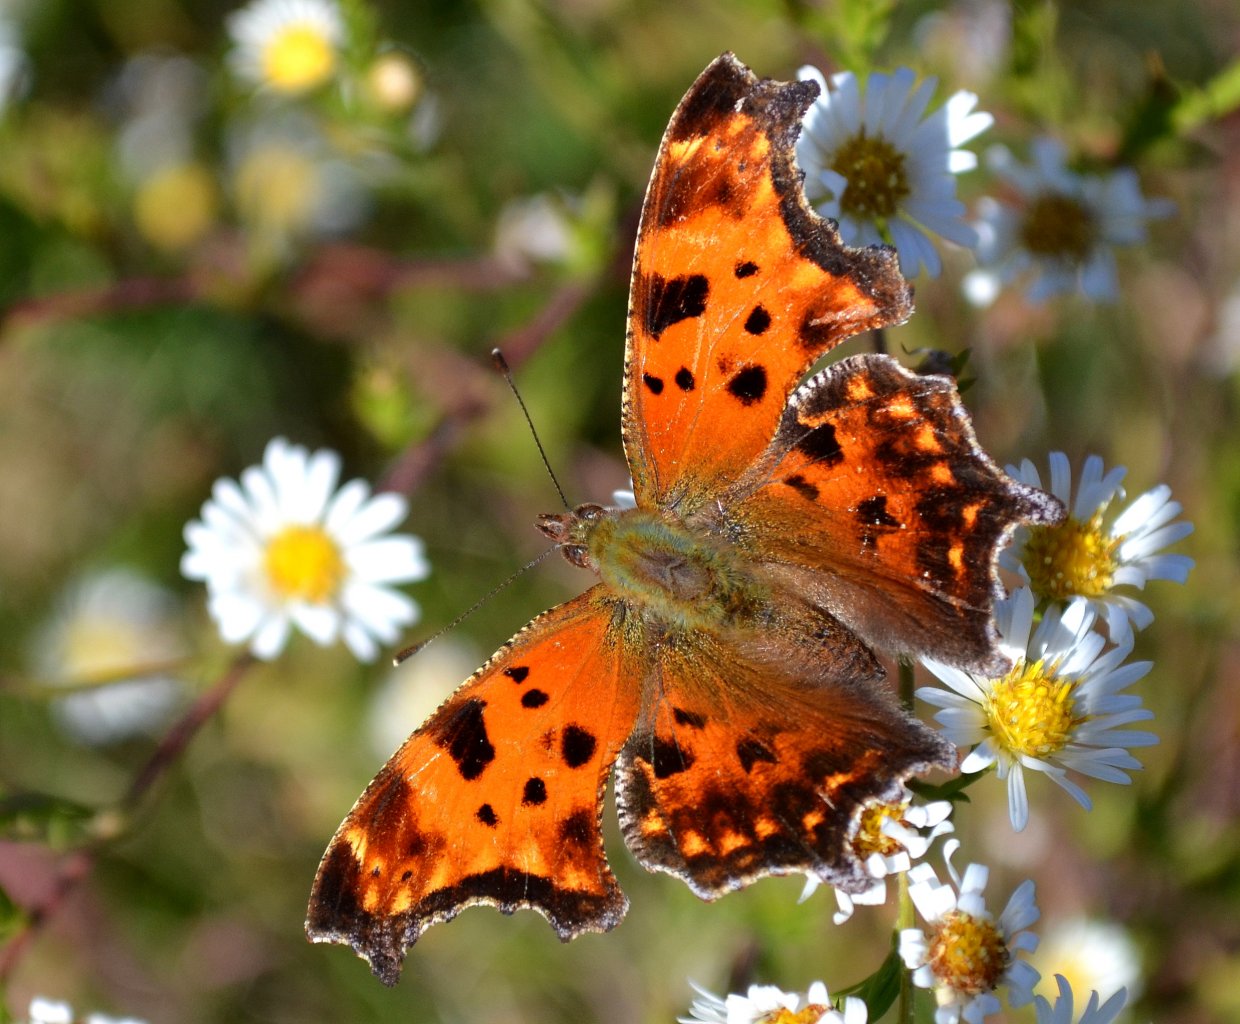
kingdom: Animalia
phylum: Arthropoda
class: Insecta
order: Lepidoptera
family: Nymphalidae
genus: Polygonia
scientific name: Polygonia comma
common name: Eastern Comma
